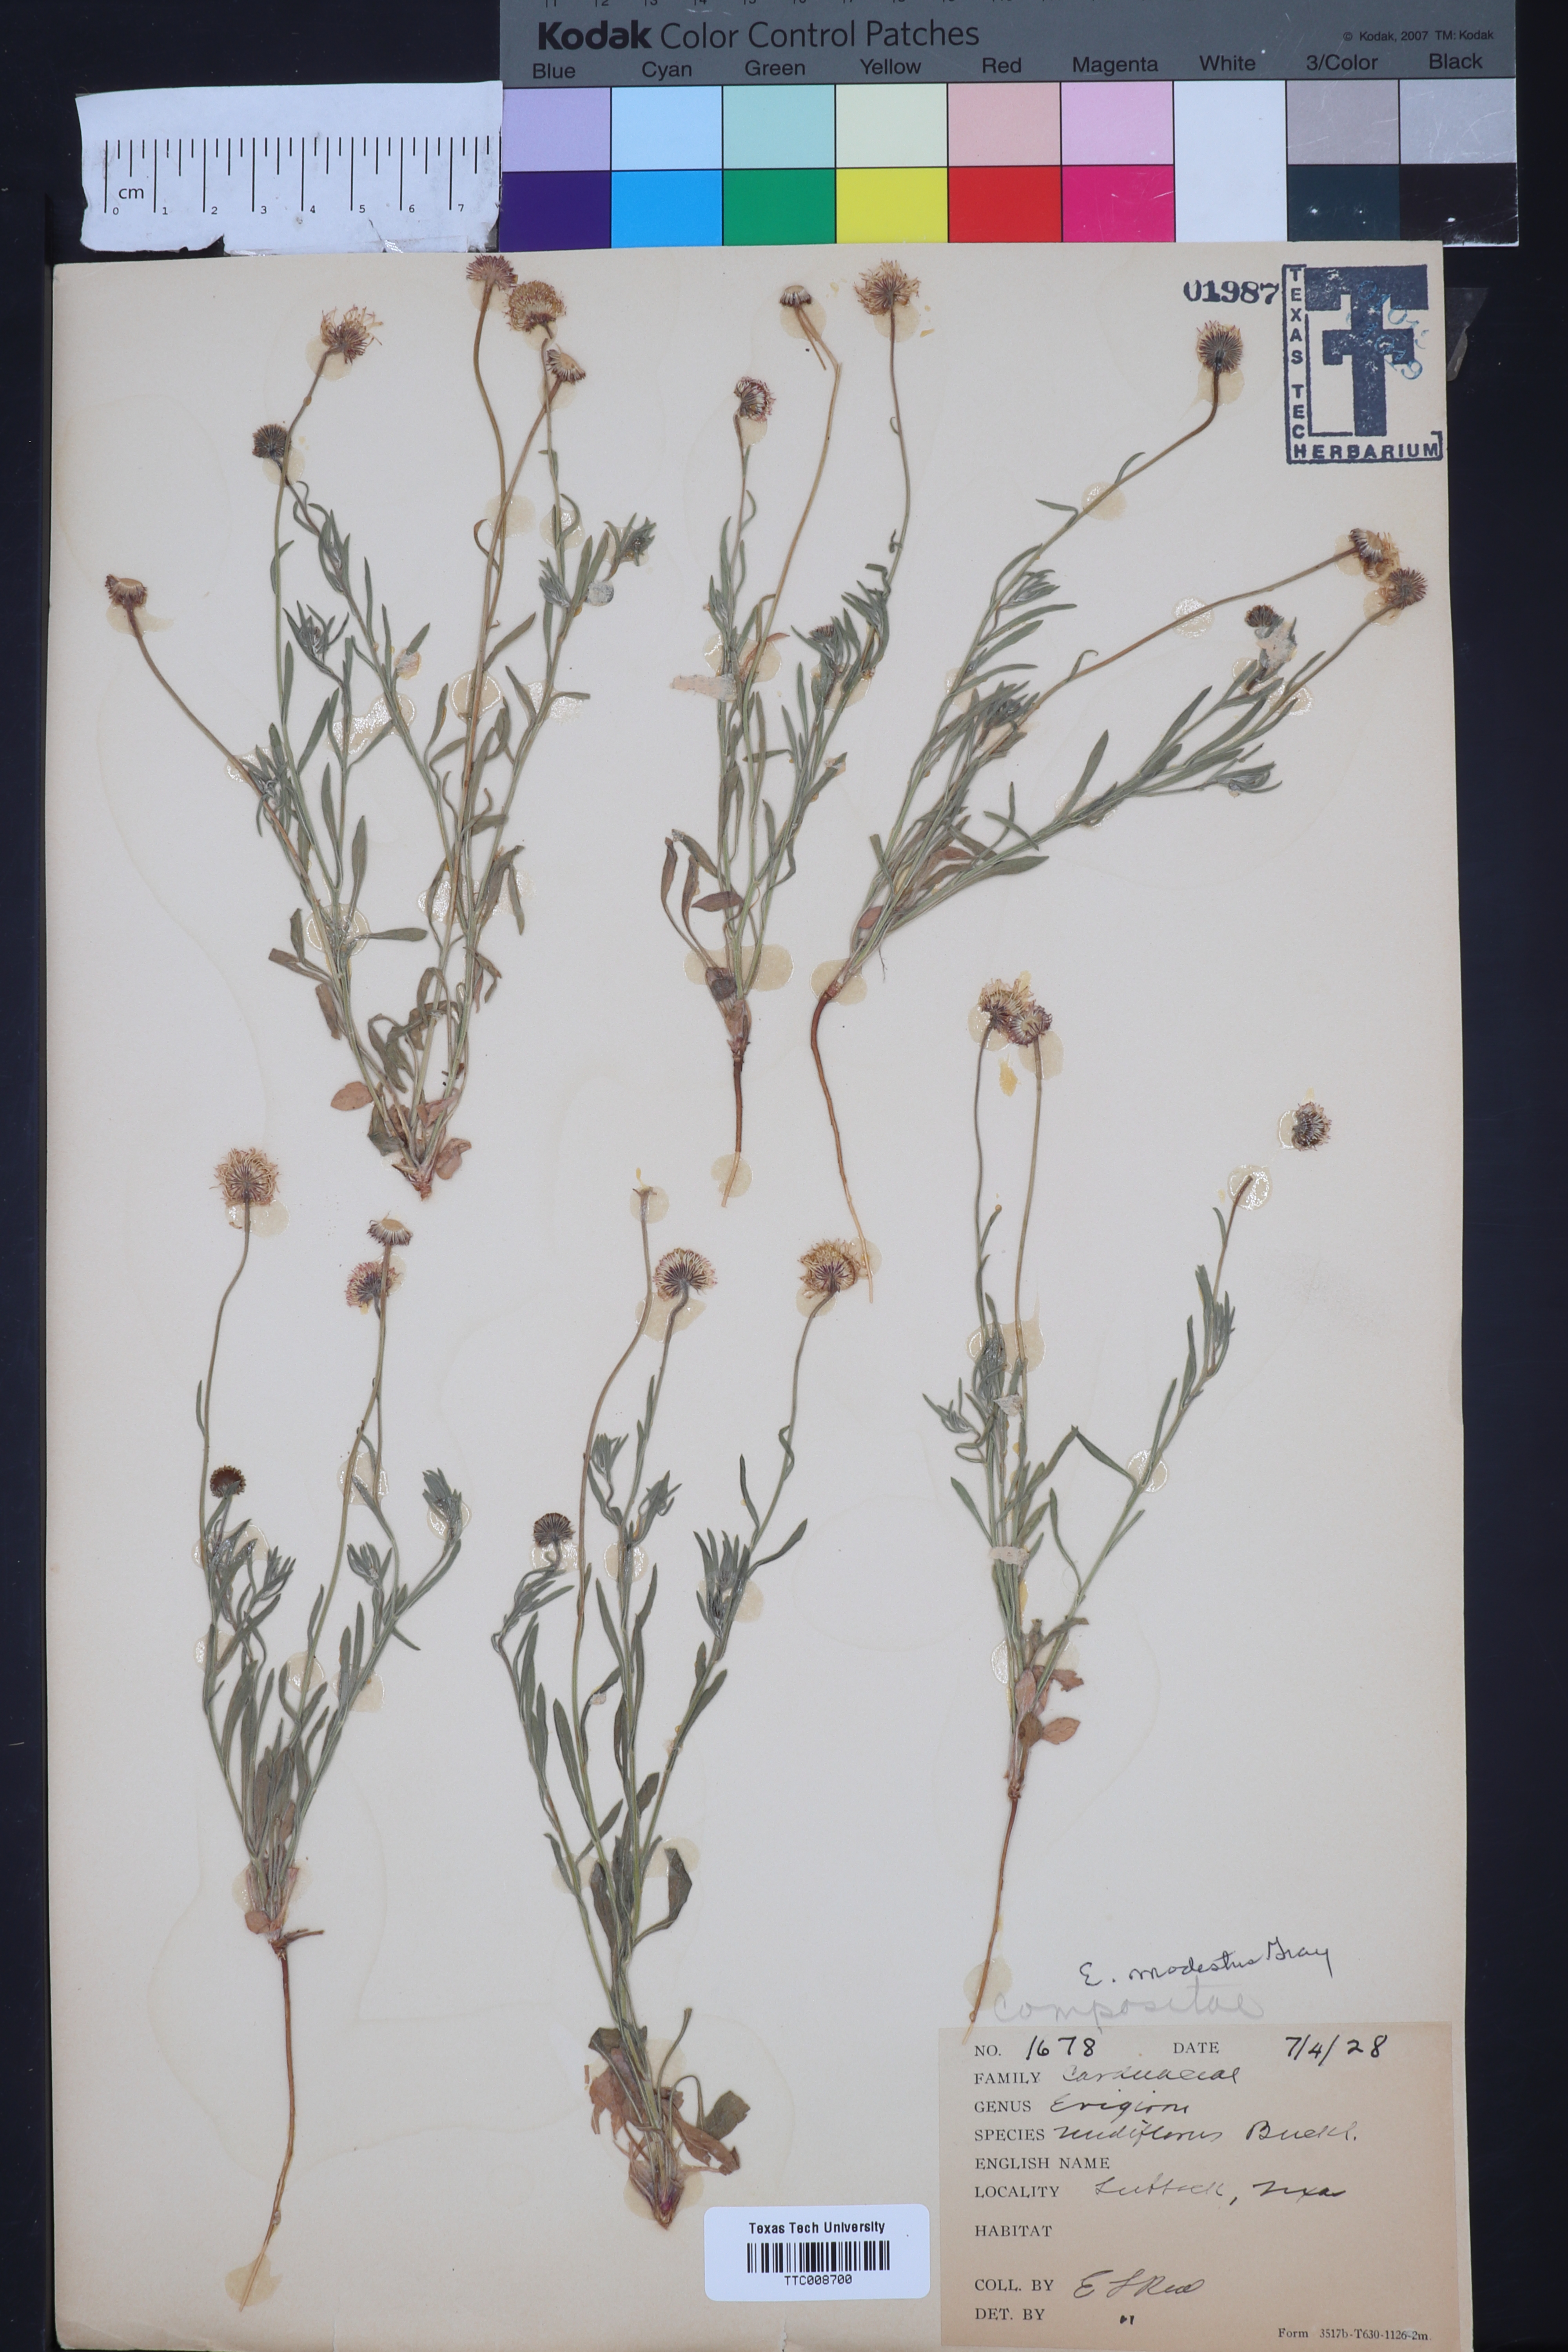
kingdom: Plantae
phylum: Tracheophyta
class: Magnoliopsida
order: Asterales
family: Asteraceae
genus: Erigeron
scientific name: Erigeron modestus
